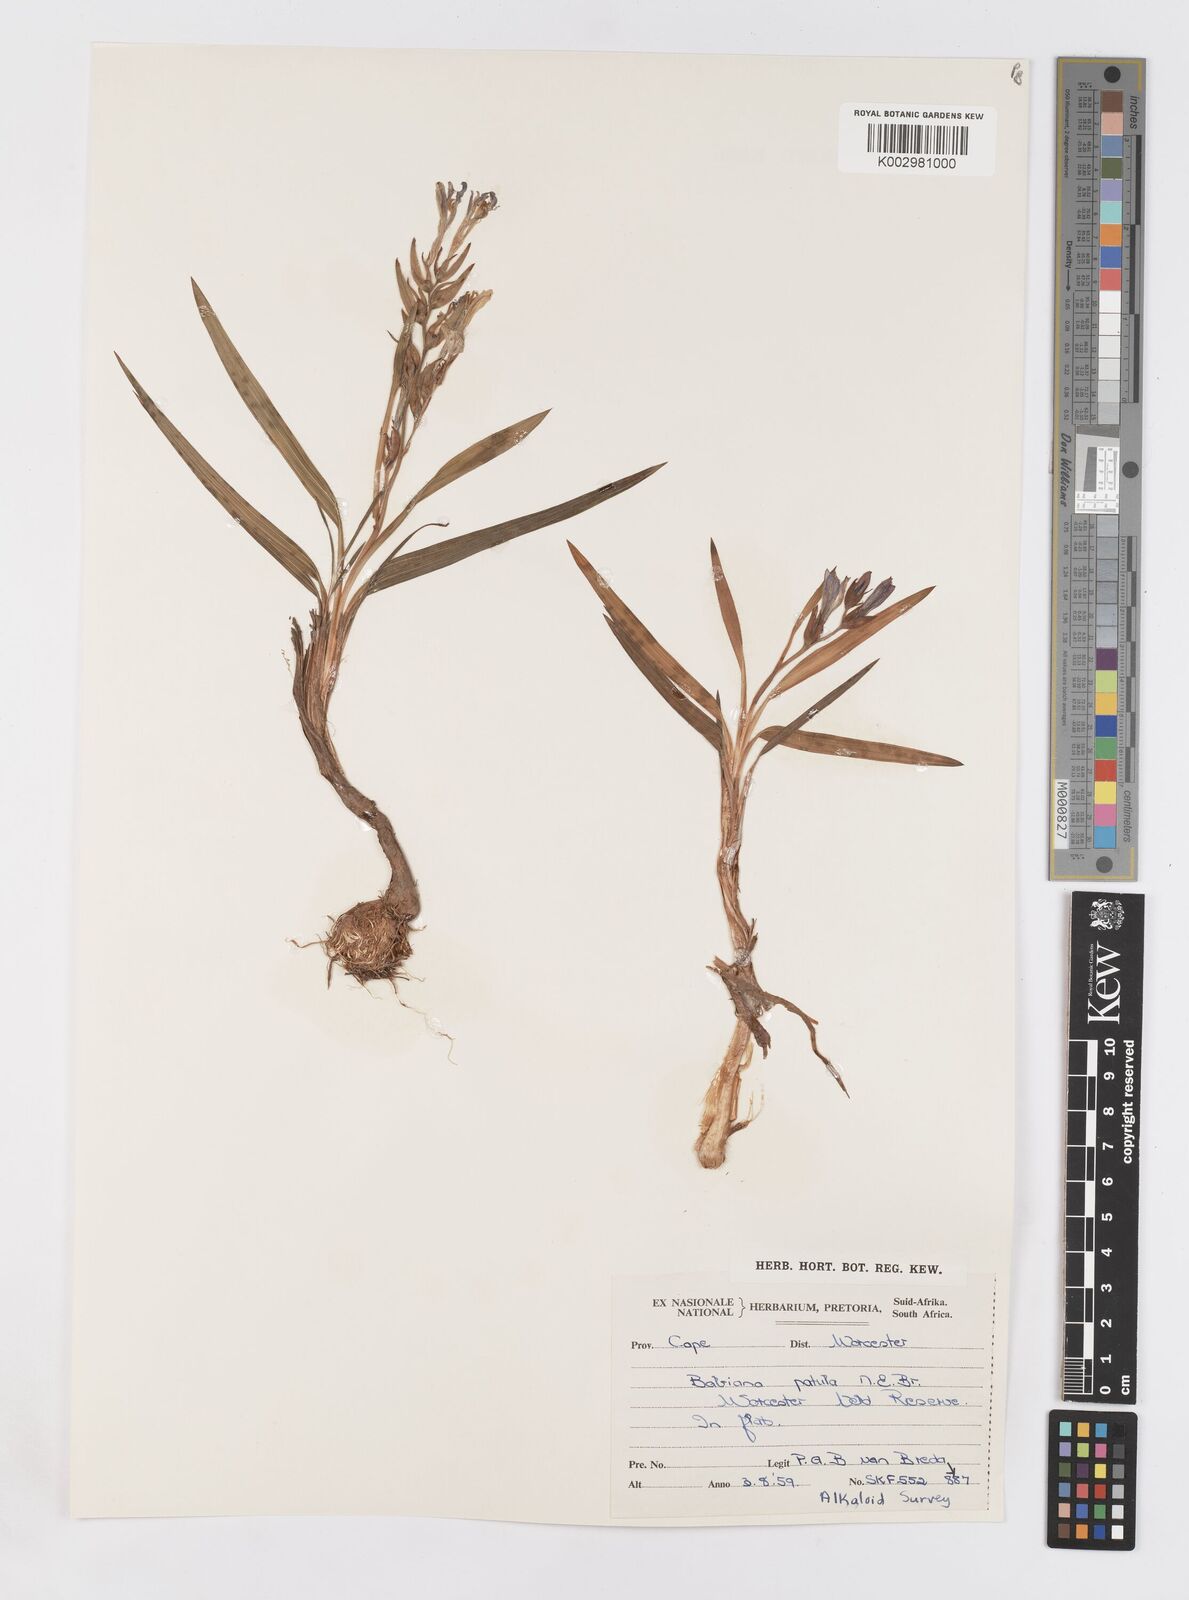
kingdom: Plantae
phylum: Tracheophyta
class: Liliopsida
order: Asparagales
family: Iridaceae
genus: Babiana
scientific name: Babiana patula
